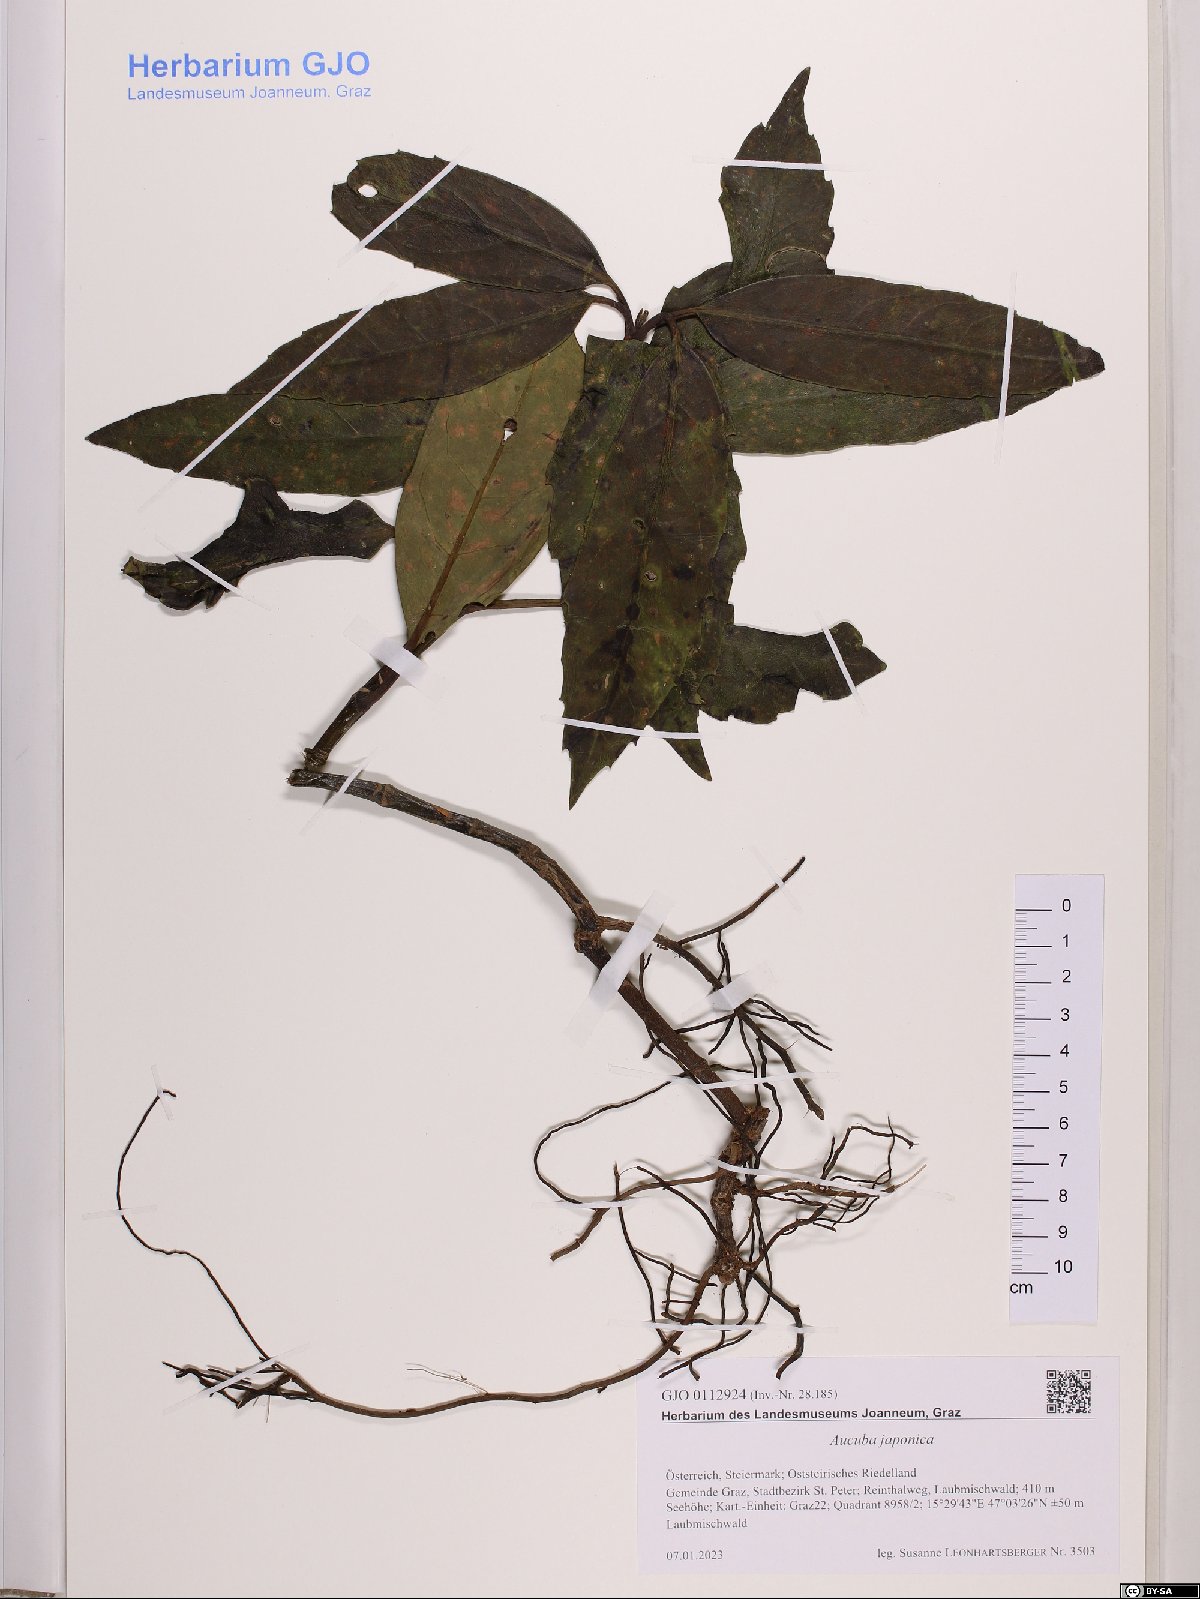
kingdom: Plantae
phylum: Tracheophyta
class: Magnoliopsida
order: Garryales
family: Garryaceae
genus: Aucuba
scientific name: Aucuba japonica
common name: Spotted-laurel
